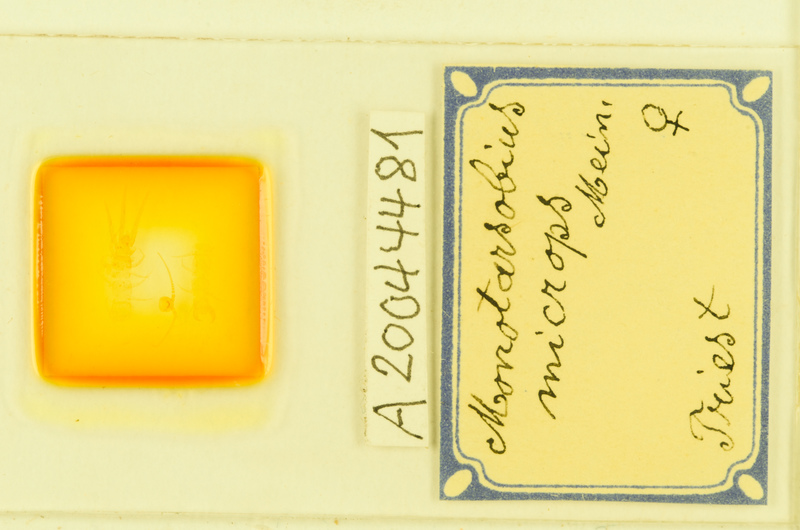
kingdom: Animalia
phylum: Arthropoda
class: Chilopoda
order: Lithobiomorpha
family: Lithobiidae
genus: Monotarsobius
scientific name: Monotarsobius microps
